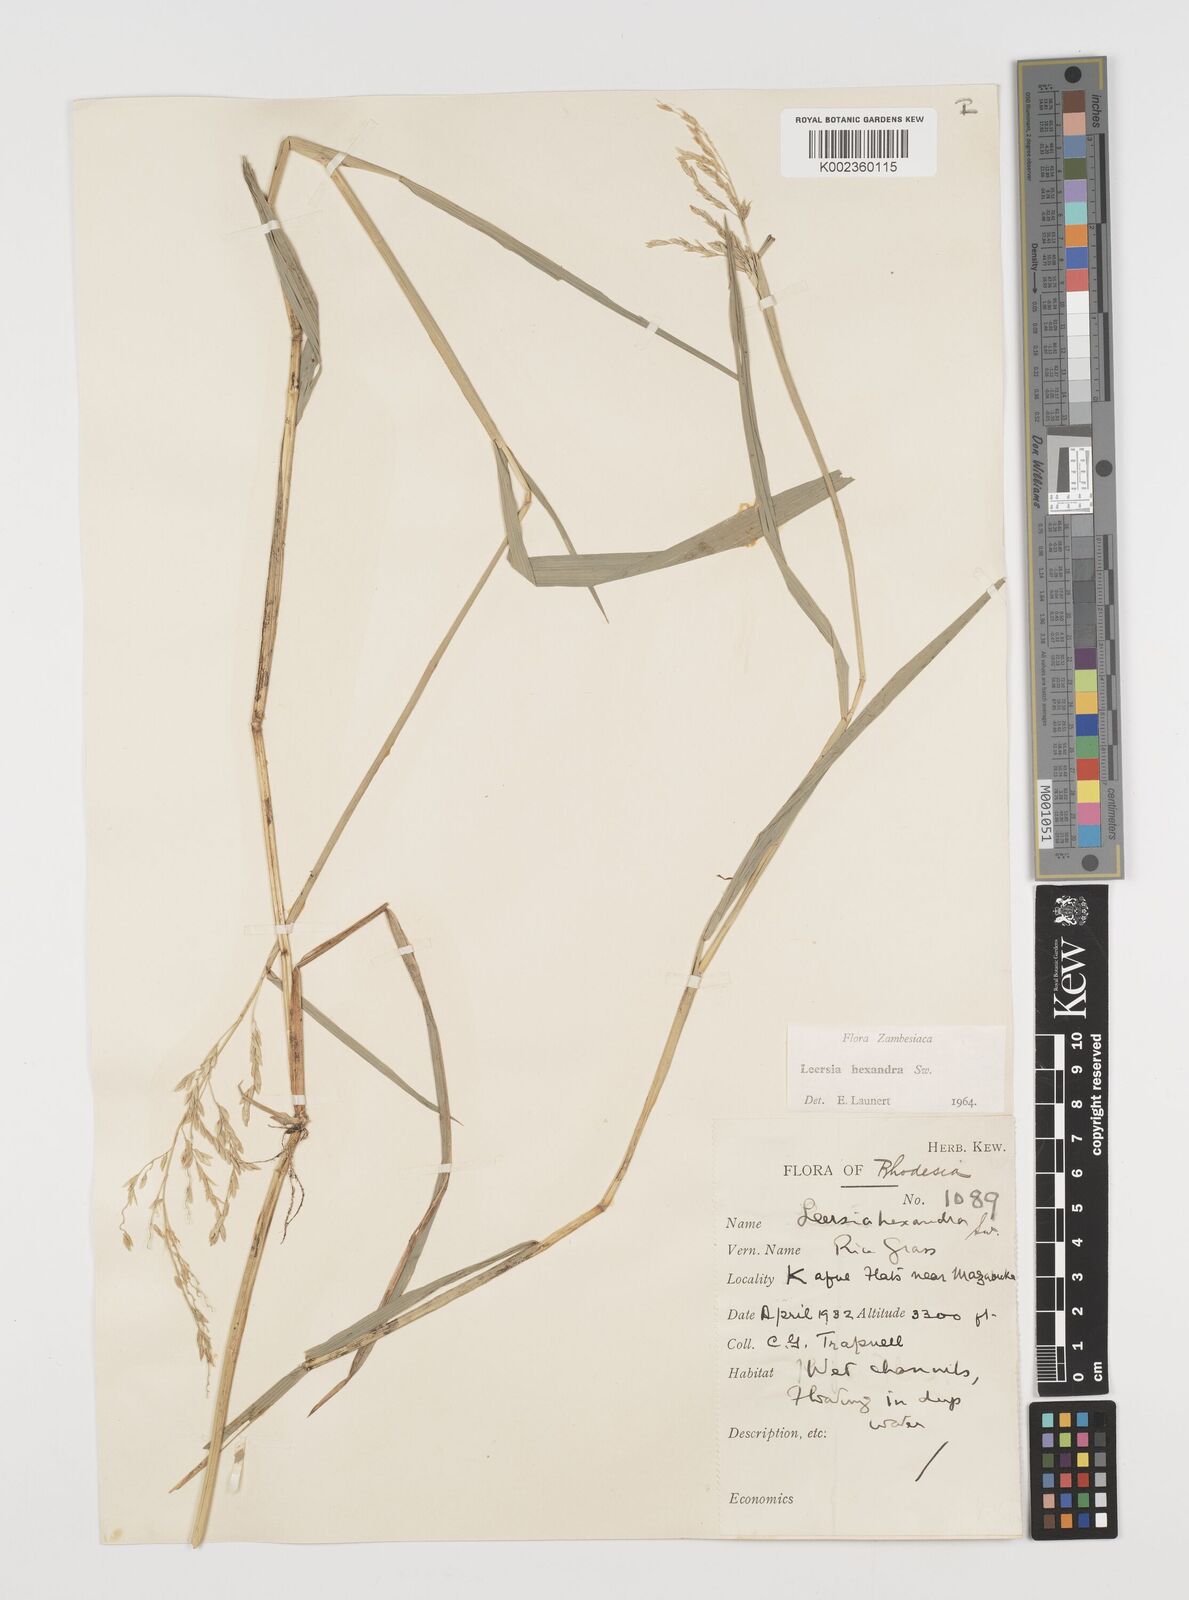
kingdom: Plantae
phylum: Tracheophyta
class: Liliopsida
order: Poales
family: Poaceae
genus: Leersia
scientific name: Leersia hexandra
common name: Southern cut grass
